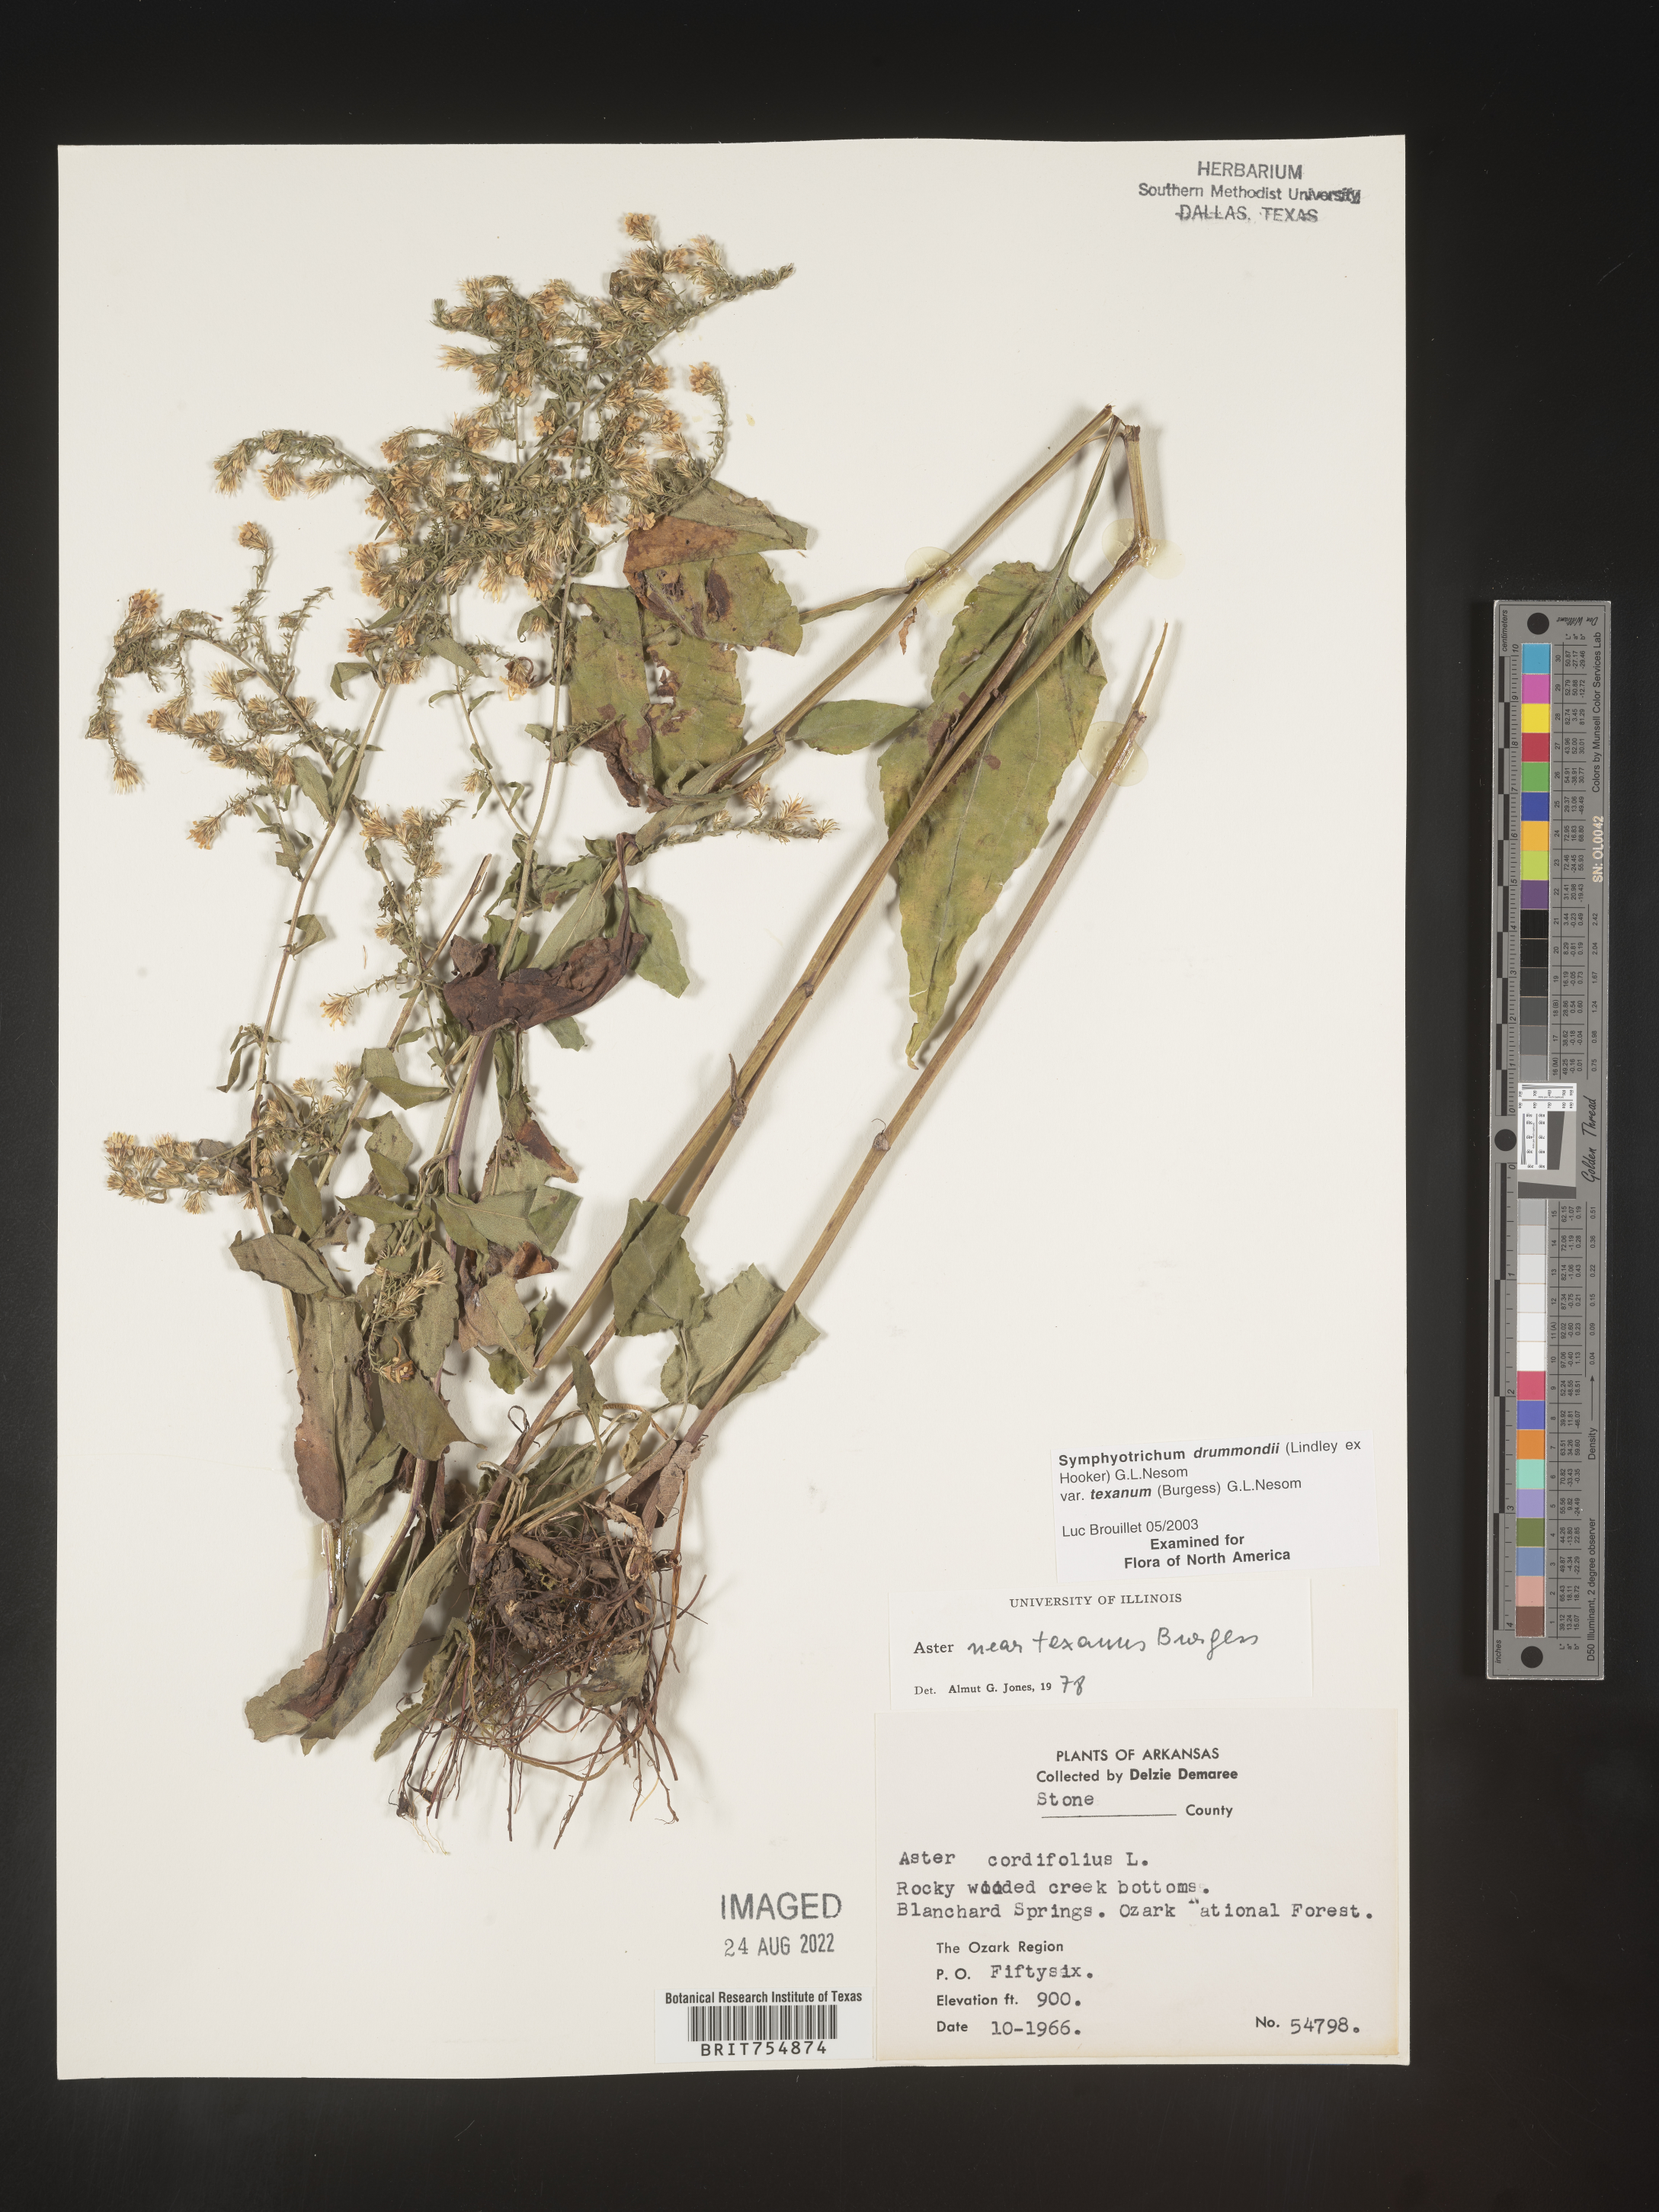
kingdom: Plantae
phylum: Tracheophyta
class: Magnoliopsida
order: Asterales
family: Asteraceae
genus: Symphyotrichum
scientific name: Symphyotrichum urophyllum
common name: Arrow-leaved aster
